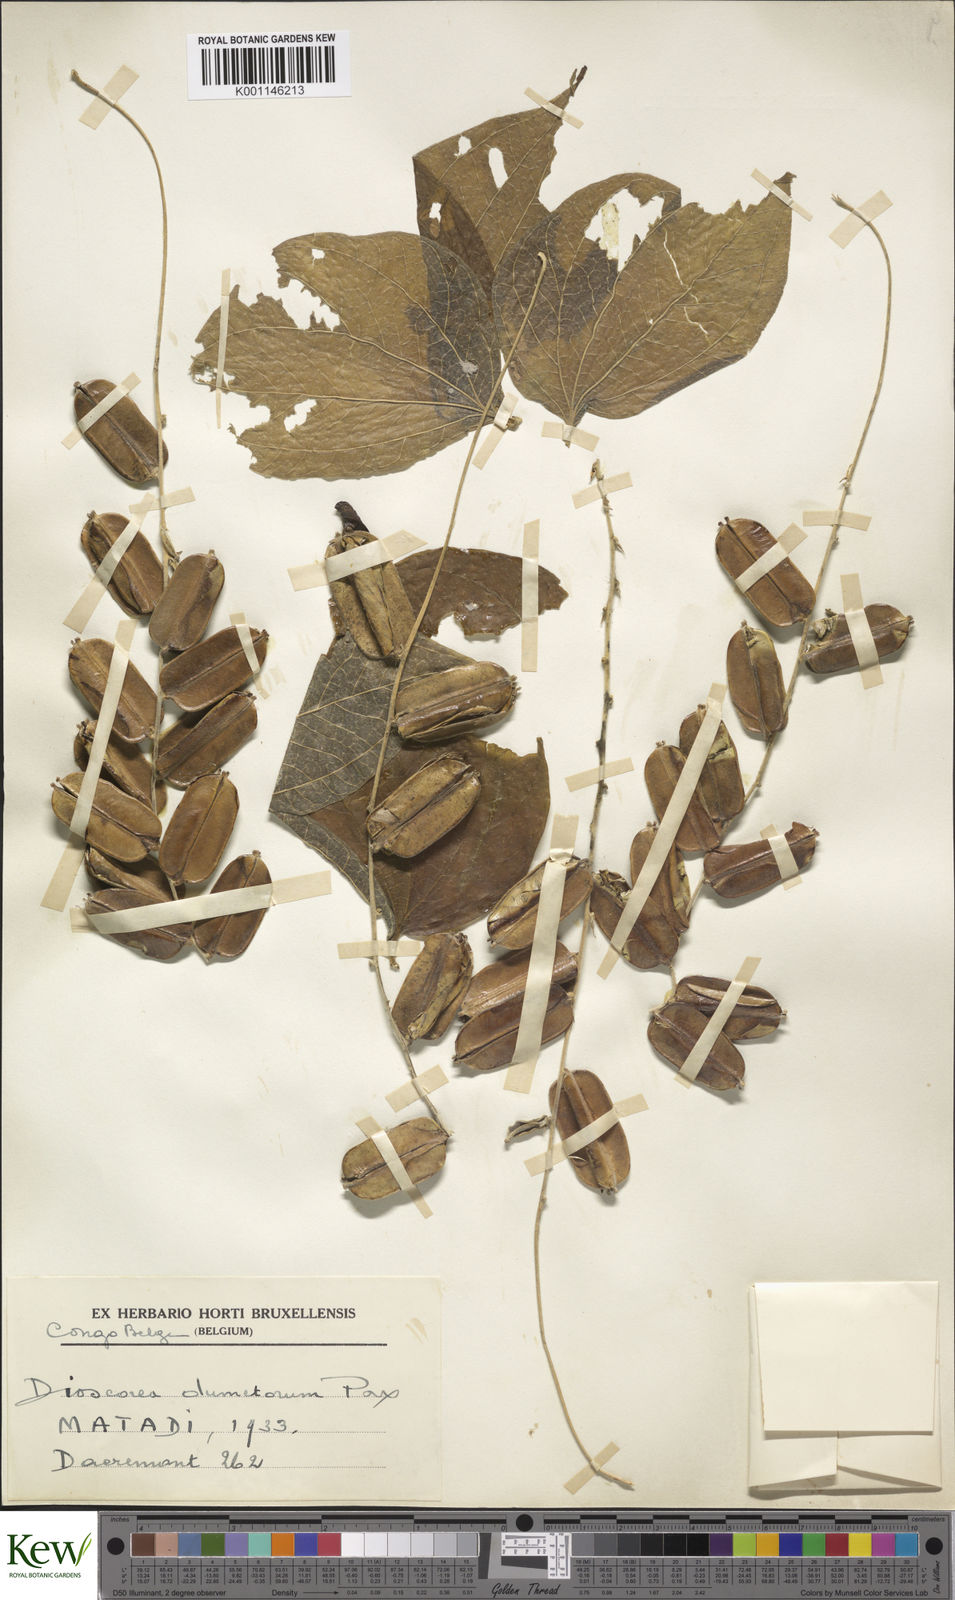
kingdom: Plantae
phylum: Tracheophyta
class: Liliopsida
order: Dioscoreales
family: Dioscoreaceae
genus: Dioscorea
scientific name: Dioscorea dumetorum
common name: African bitter yam
